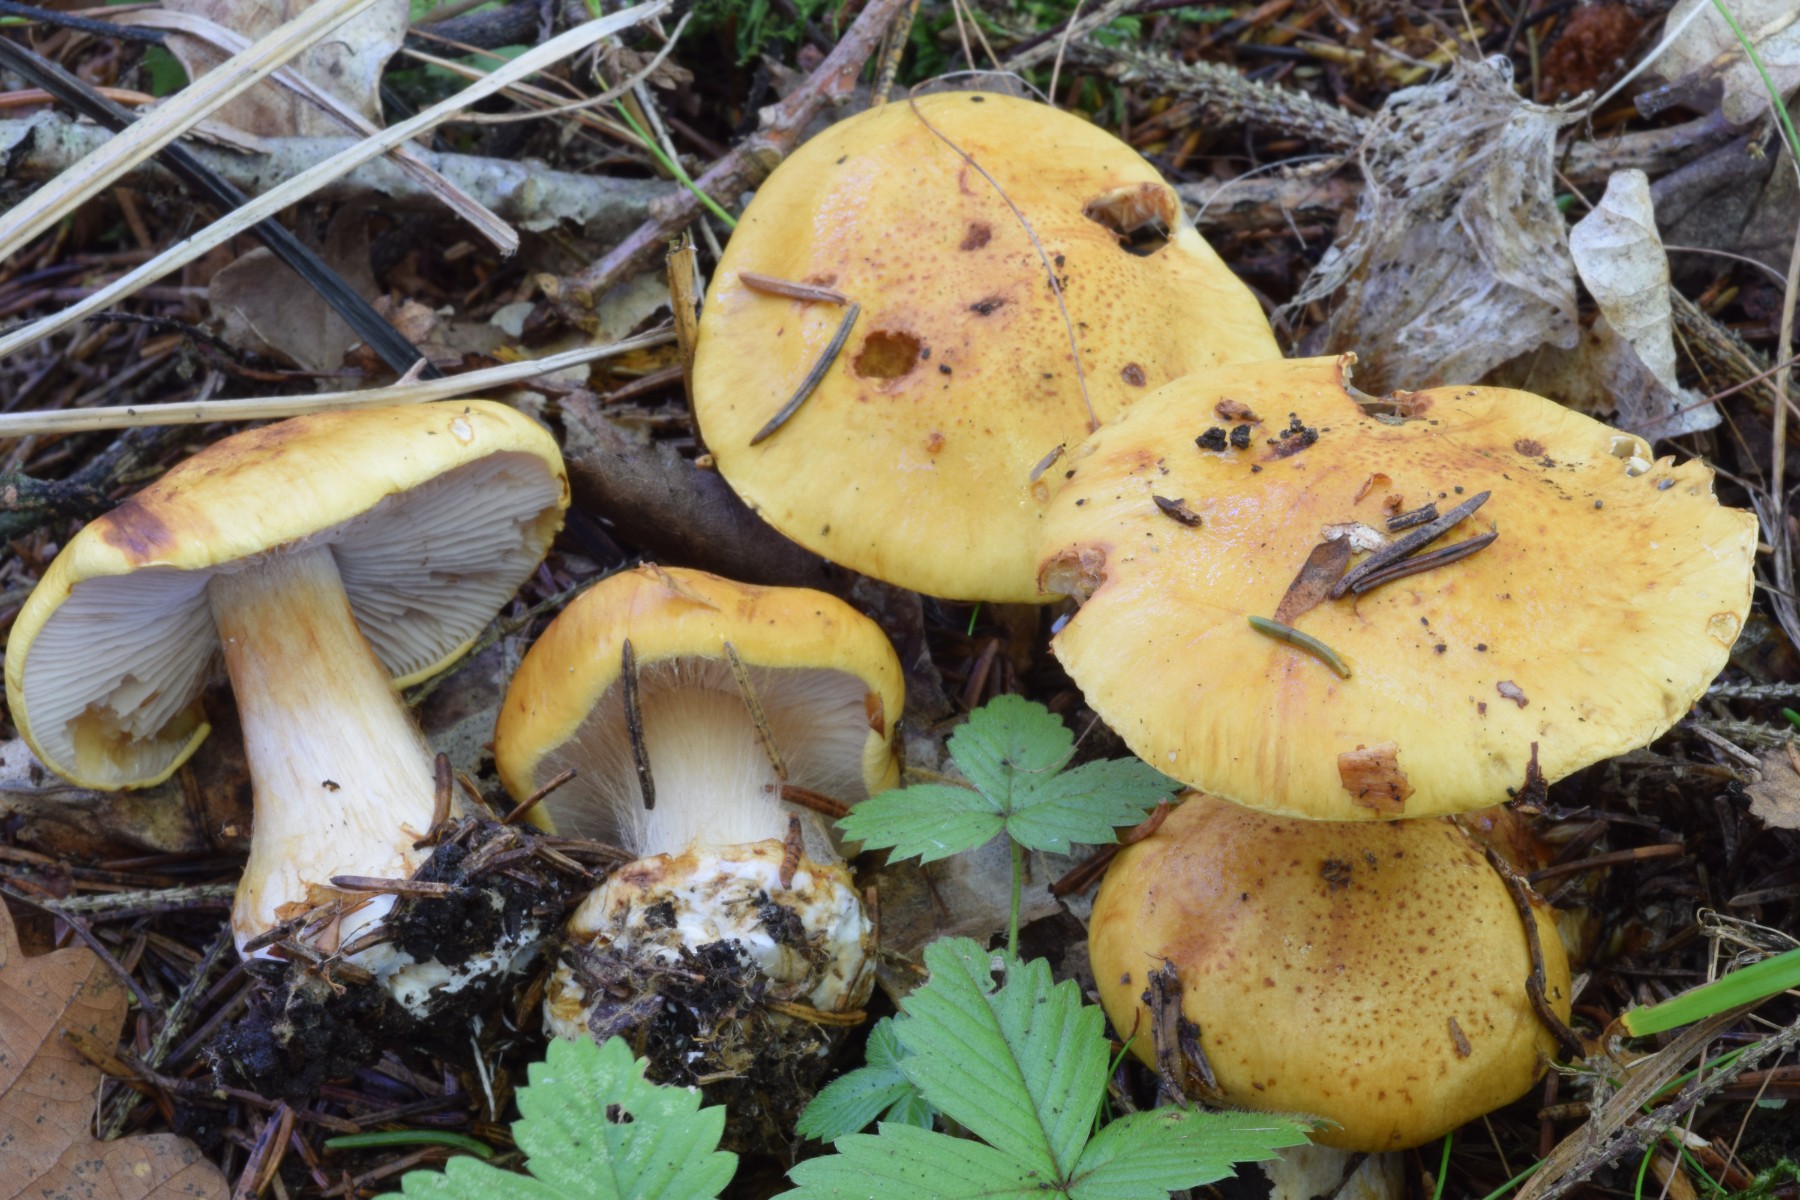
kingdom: Fungi
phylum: Basidiomycota
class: Agaricomycetes
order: Agaricales
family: Cortinariaceae
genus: Calonarius
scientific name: Calonarius piceae
